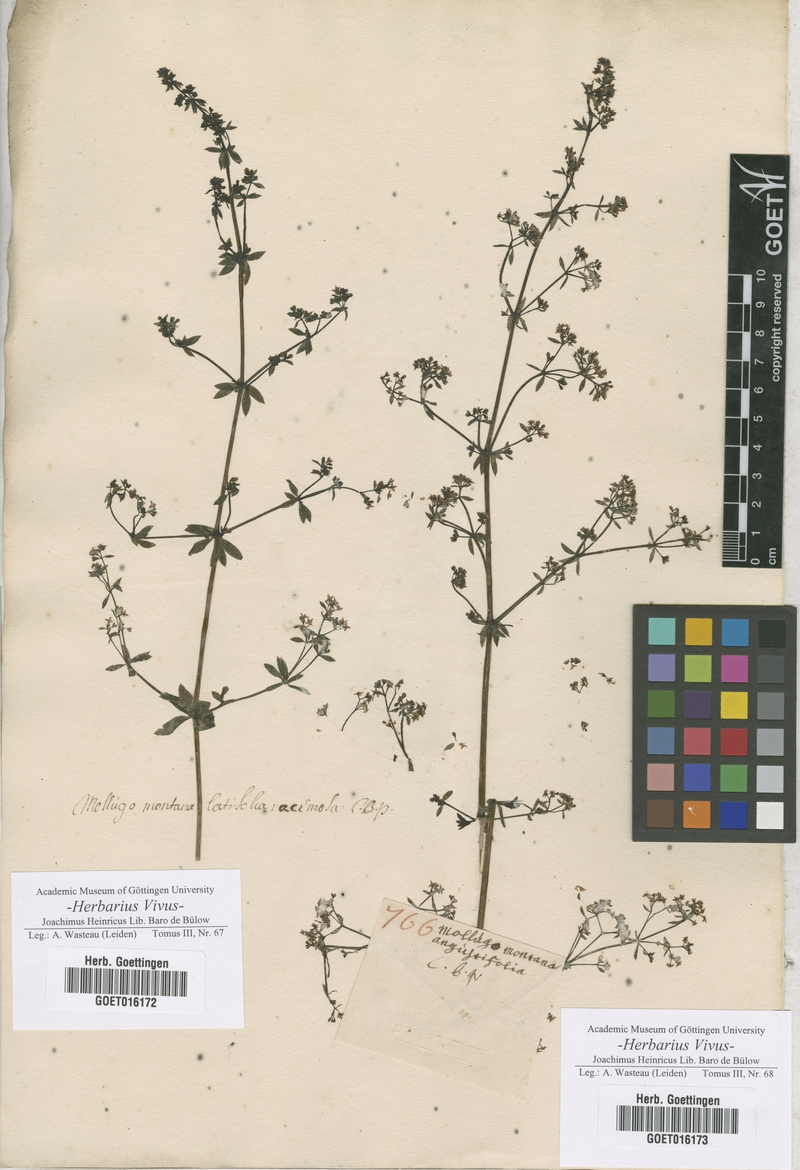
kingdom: Plantae
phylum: Tracheophyta
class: Magnoliopsida
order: Gentianales
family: Rubiaceae
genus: Galium
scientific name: Galium mollugo
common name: Hedge bedstraw
